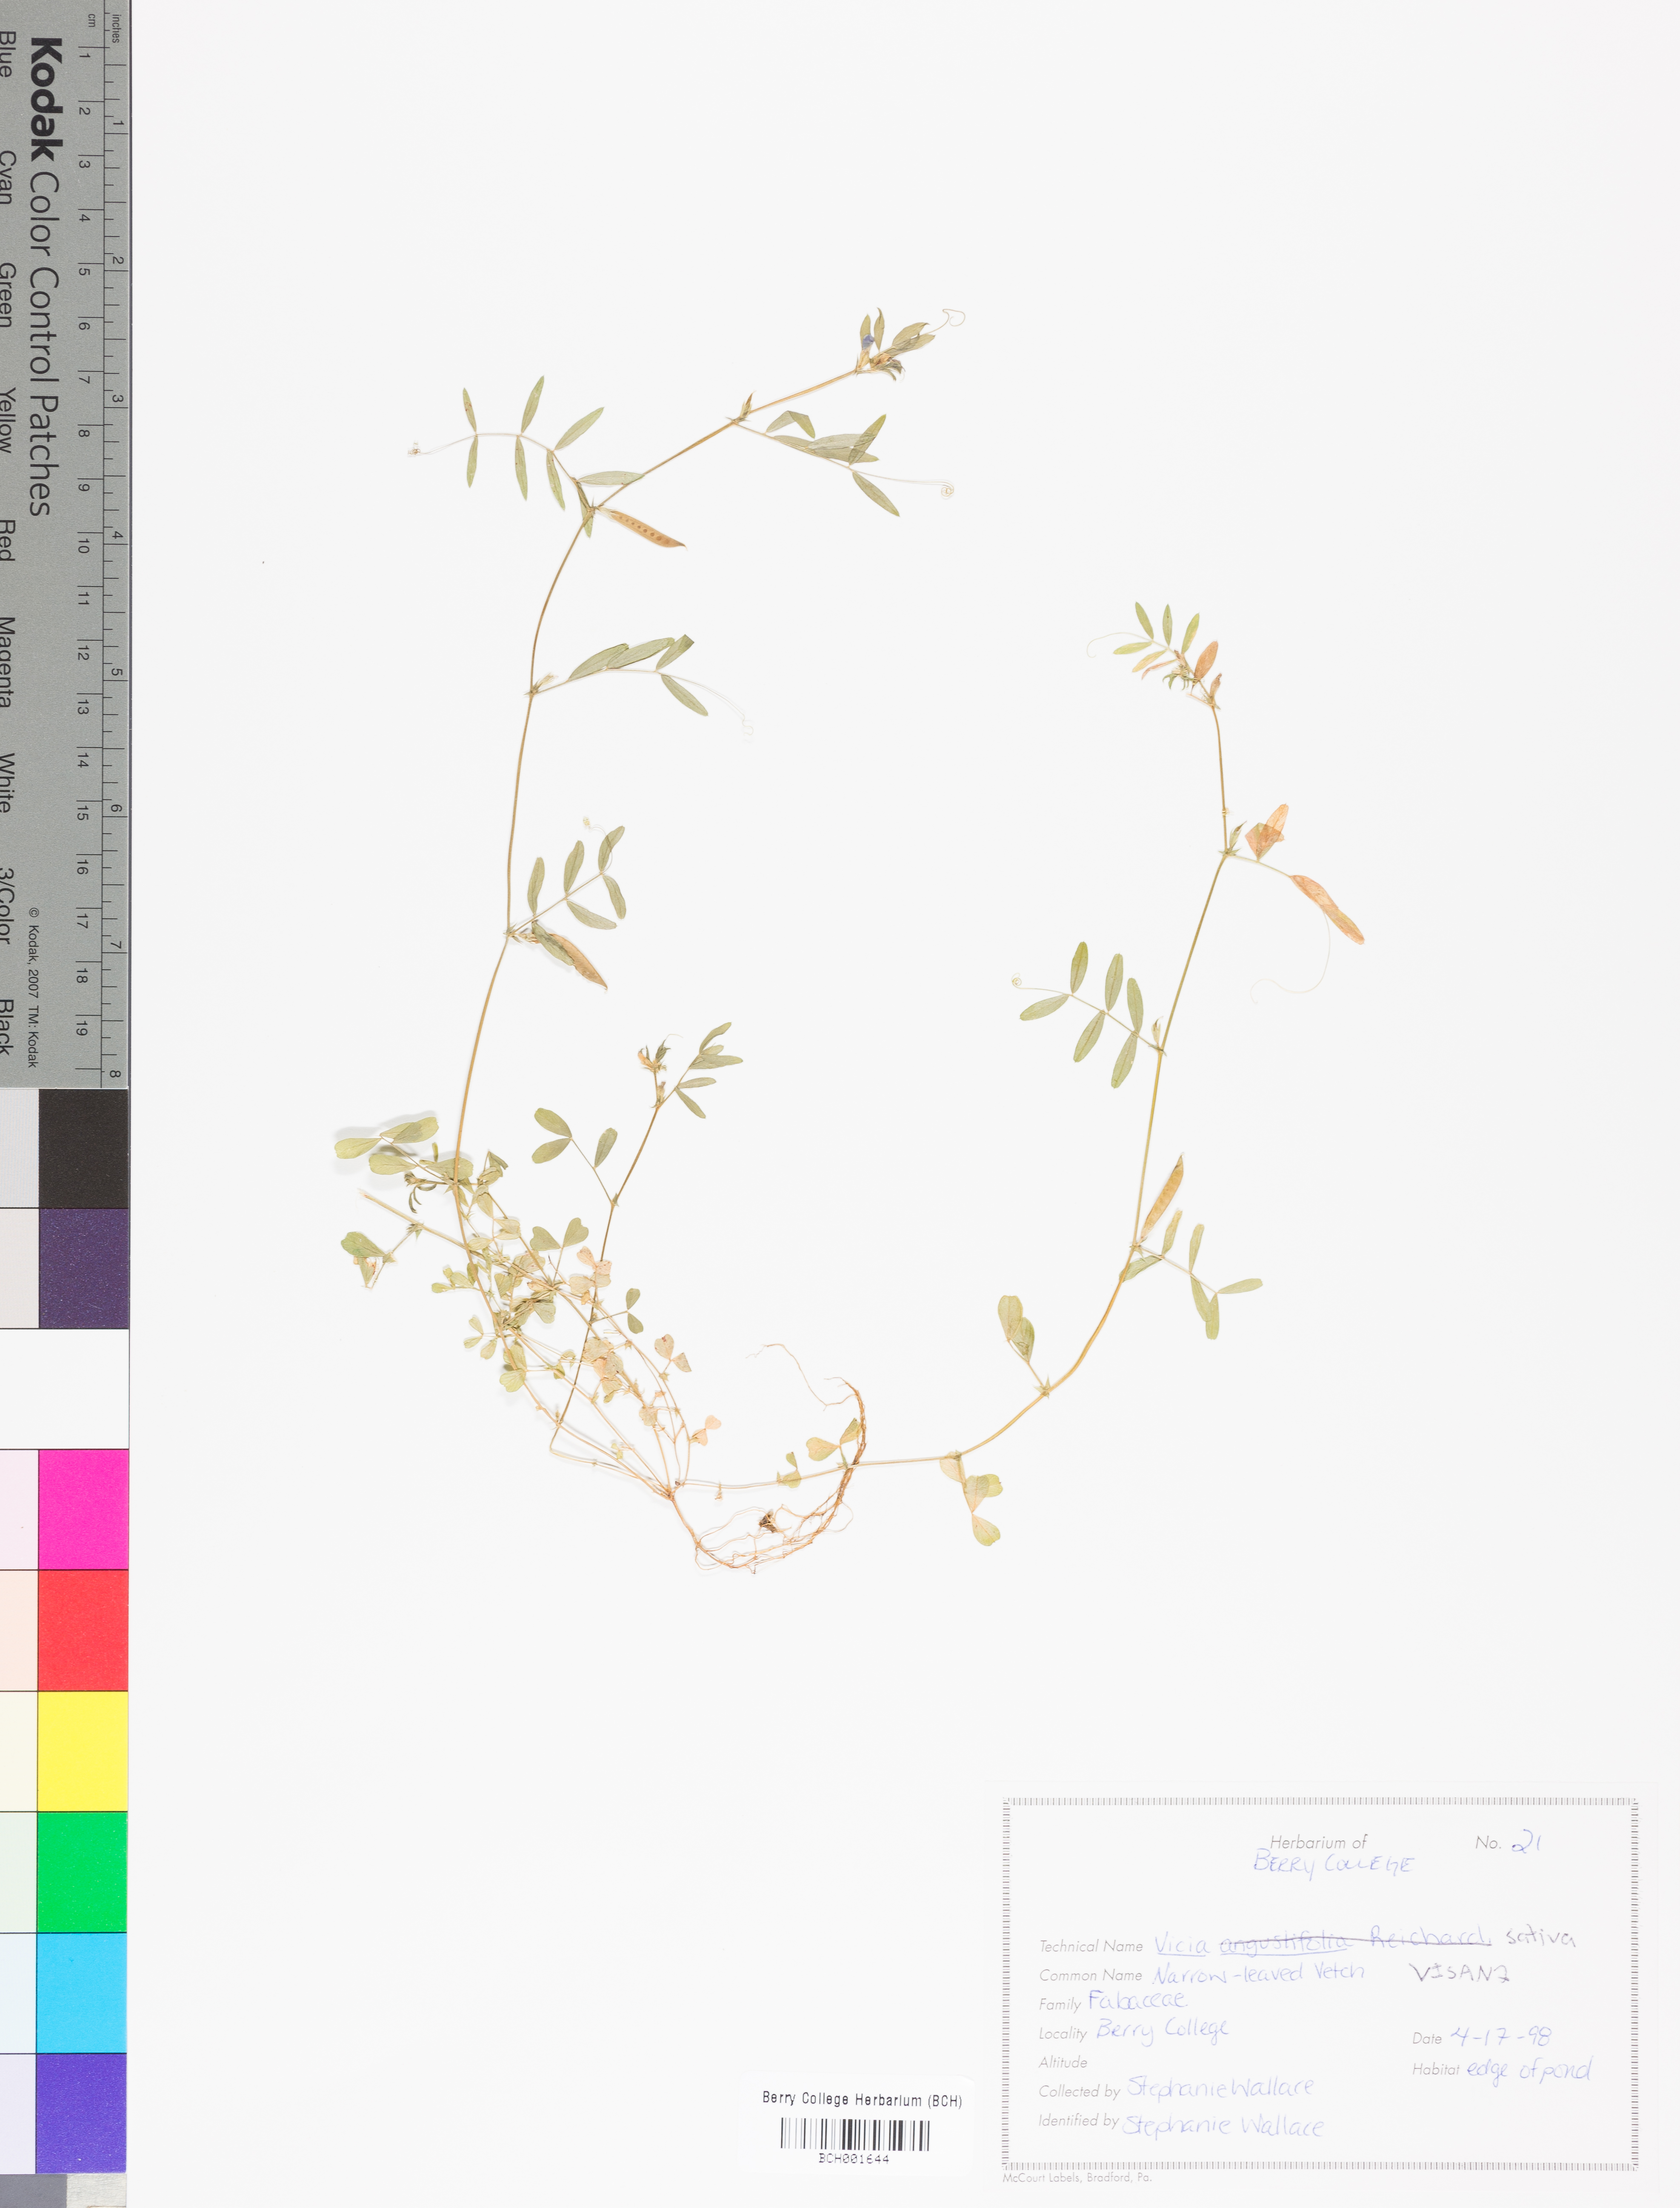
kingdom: Plantae
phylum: Tracheophyta
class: Magnoliopsida
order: Fabales
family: Fabaceae
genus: Vicia
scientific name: Vicia sativa
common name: Garden vetch
